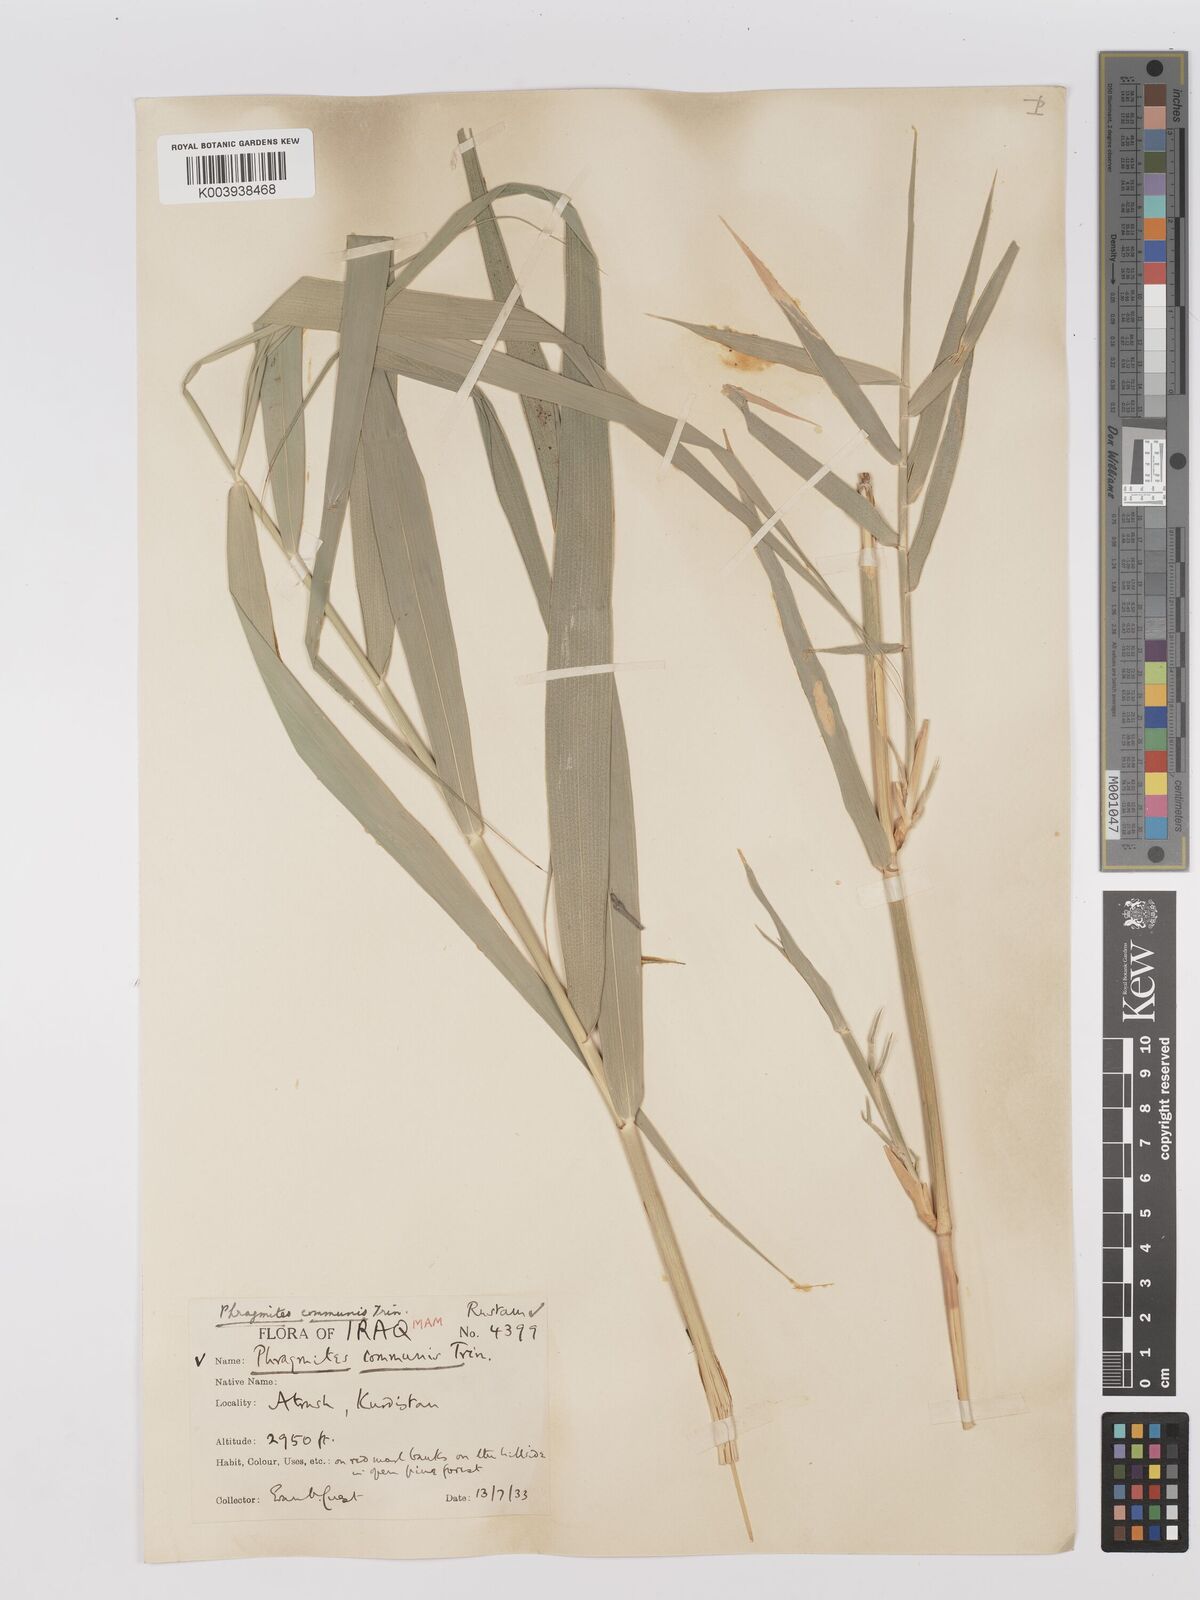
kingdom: Plantae
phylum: Tracheophyta
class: Liliopsida
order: Poales
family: Poaceae
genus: Phragmites
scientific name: Phragmites australis
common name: Common reed
